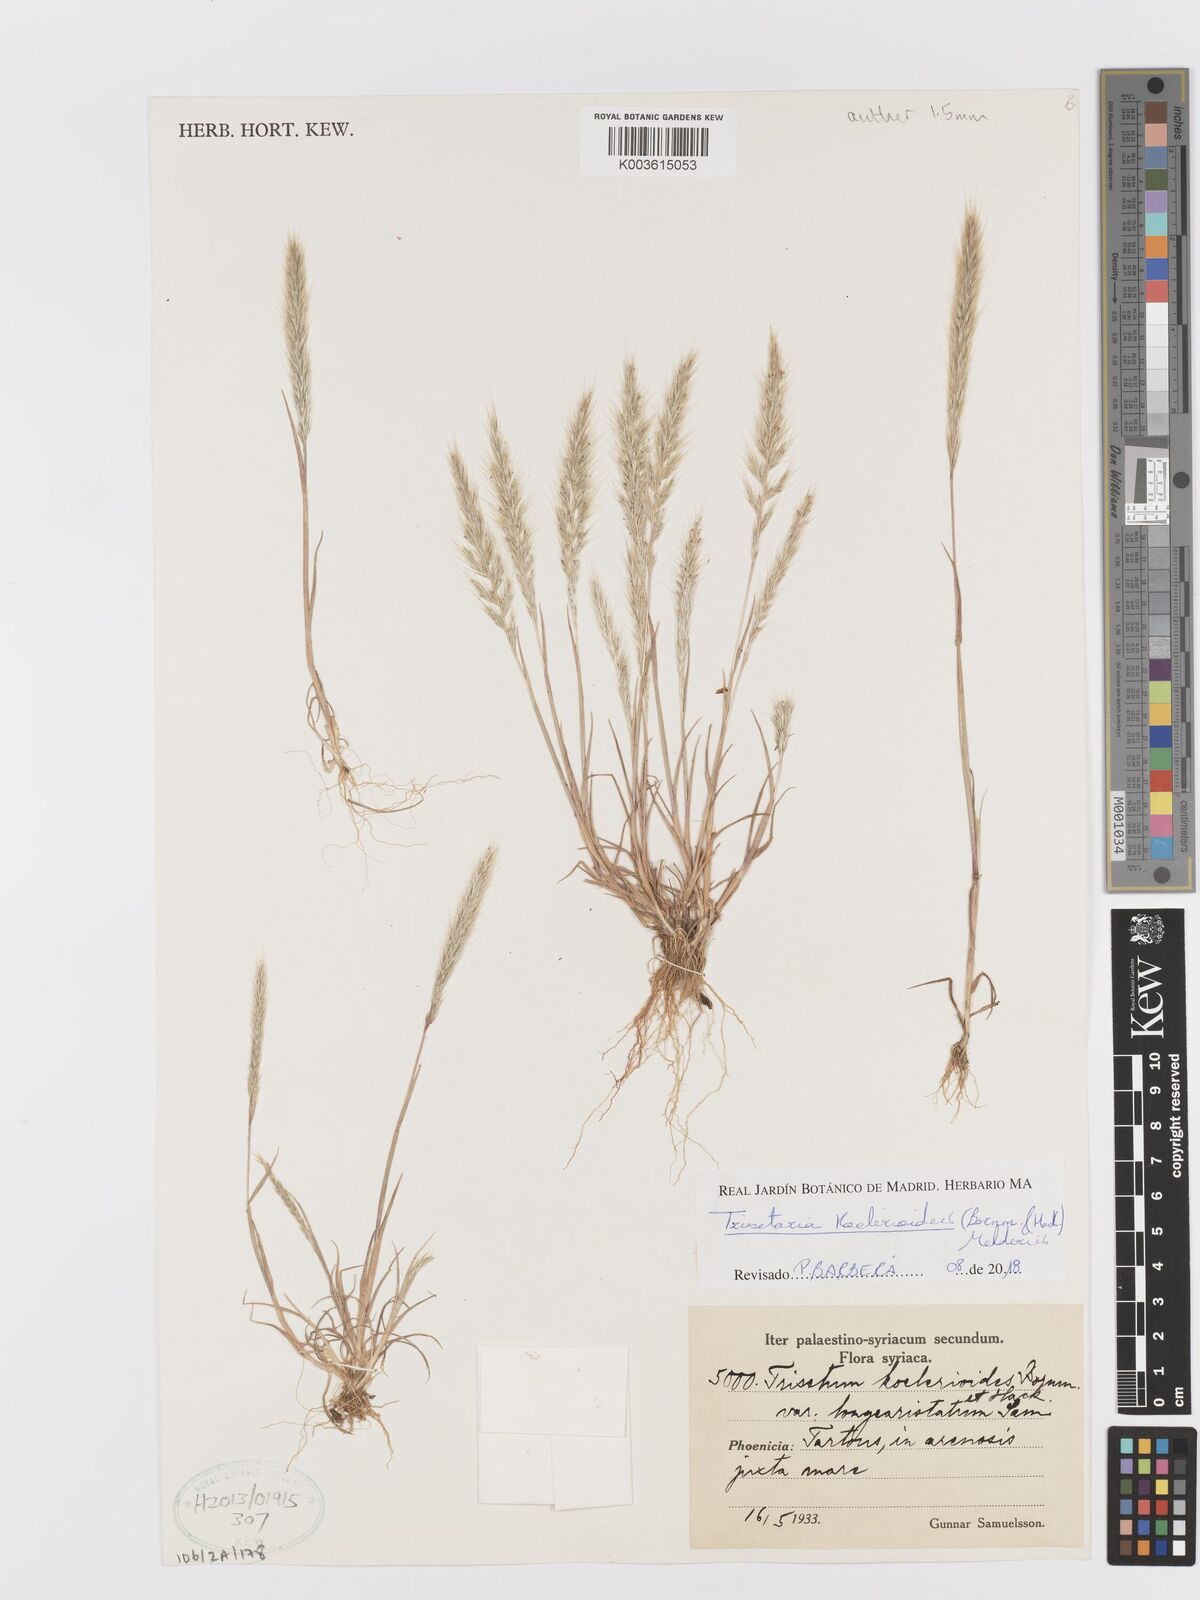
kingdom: Plantae
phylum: Tracheophyta
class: Liliopsida
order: Poales
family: Poaceae
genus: Trisetum
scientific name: Trisetum
